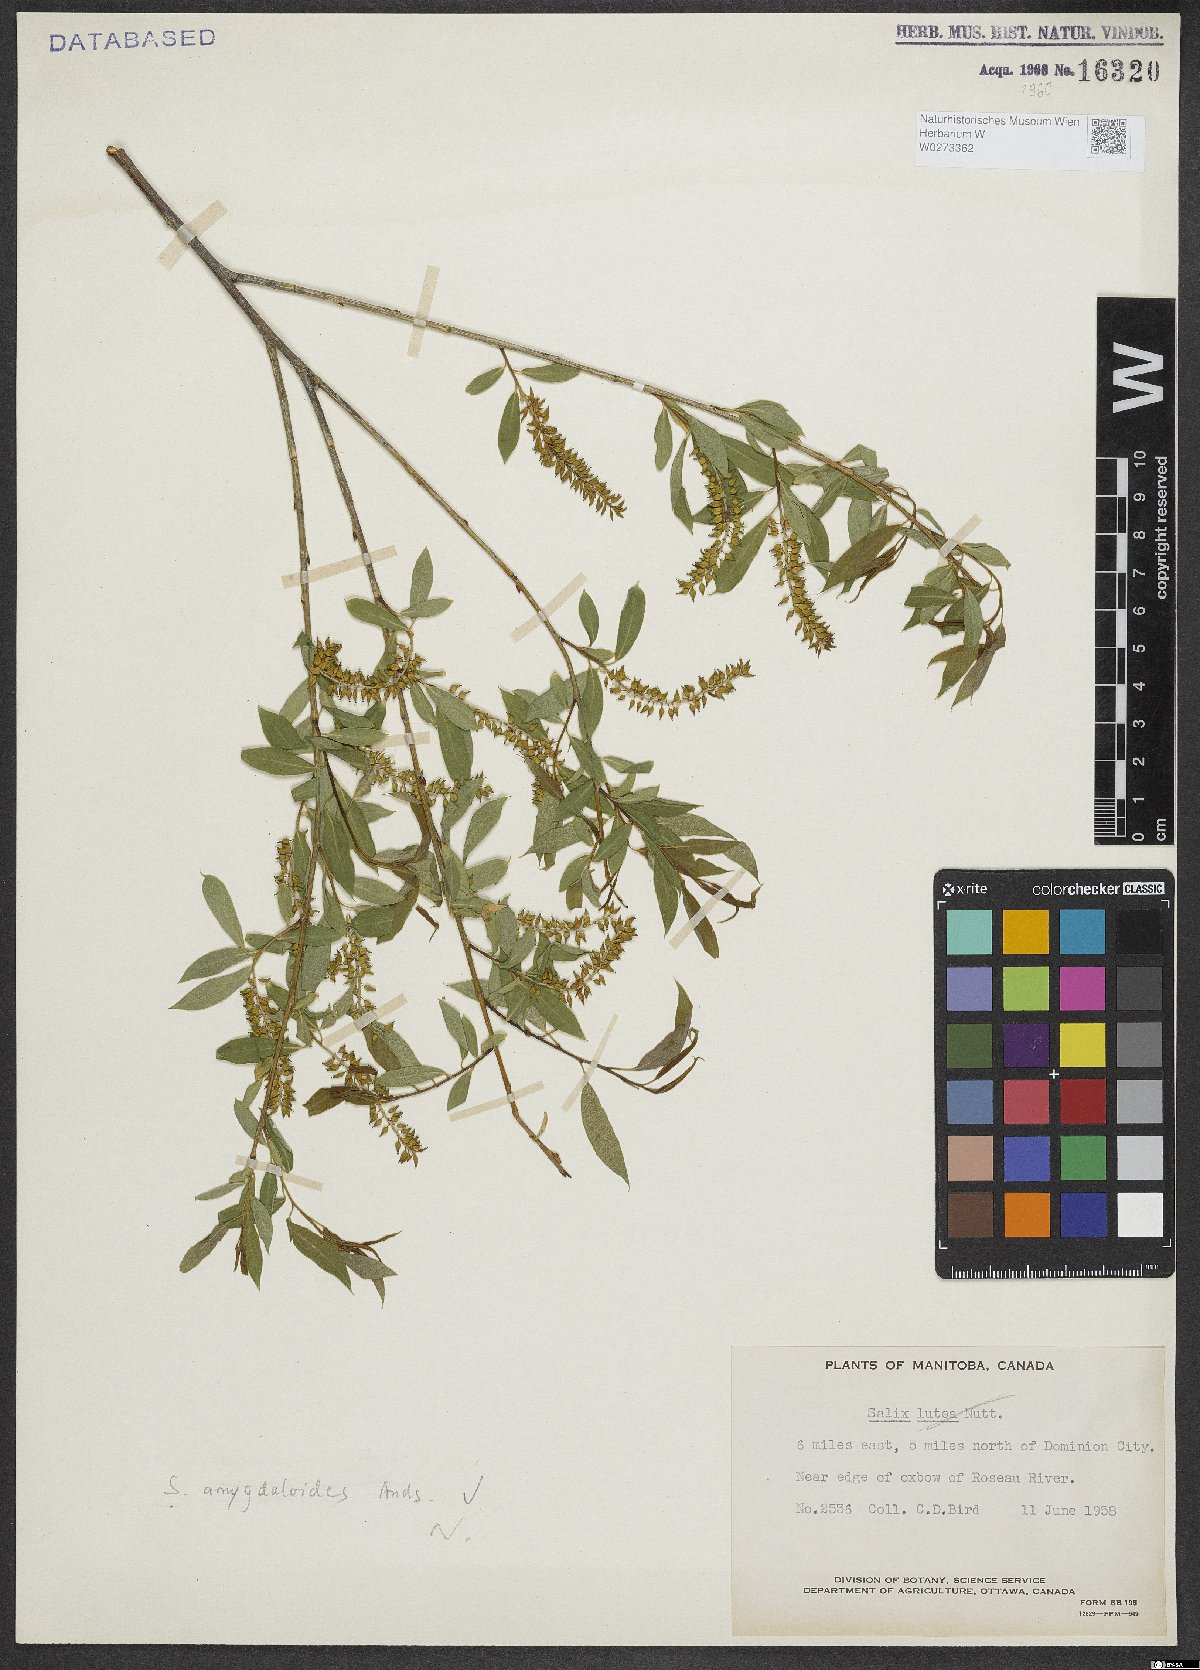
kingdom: Plantae
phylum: Tracheophyta
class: Magnoliopsida
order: Malpighiales
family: Salicaceae
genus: Salix
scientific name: Salix amygdaloides
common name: Peach leaf willow
